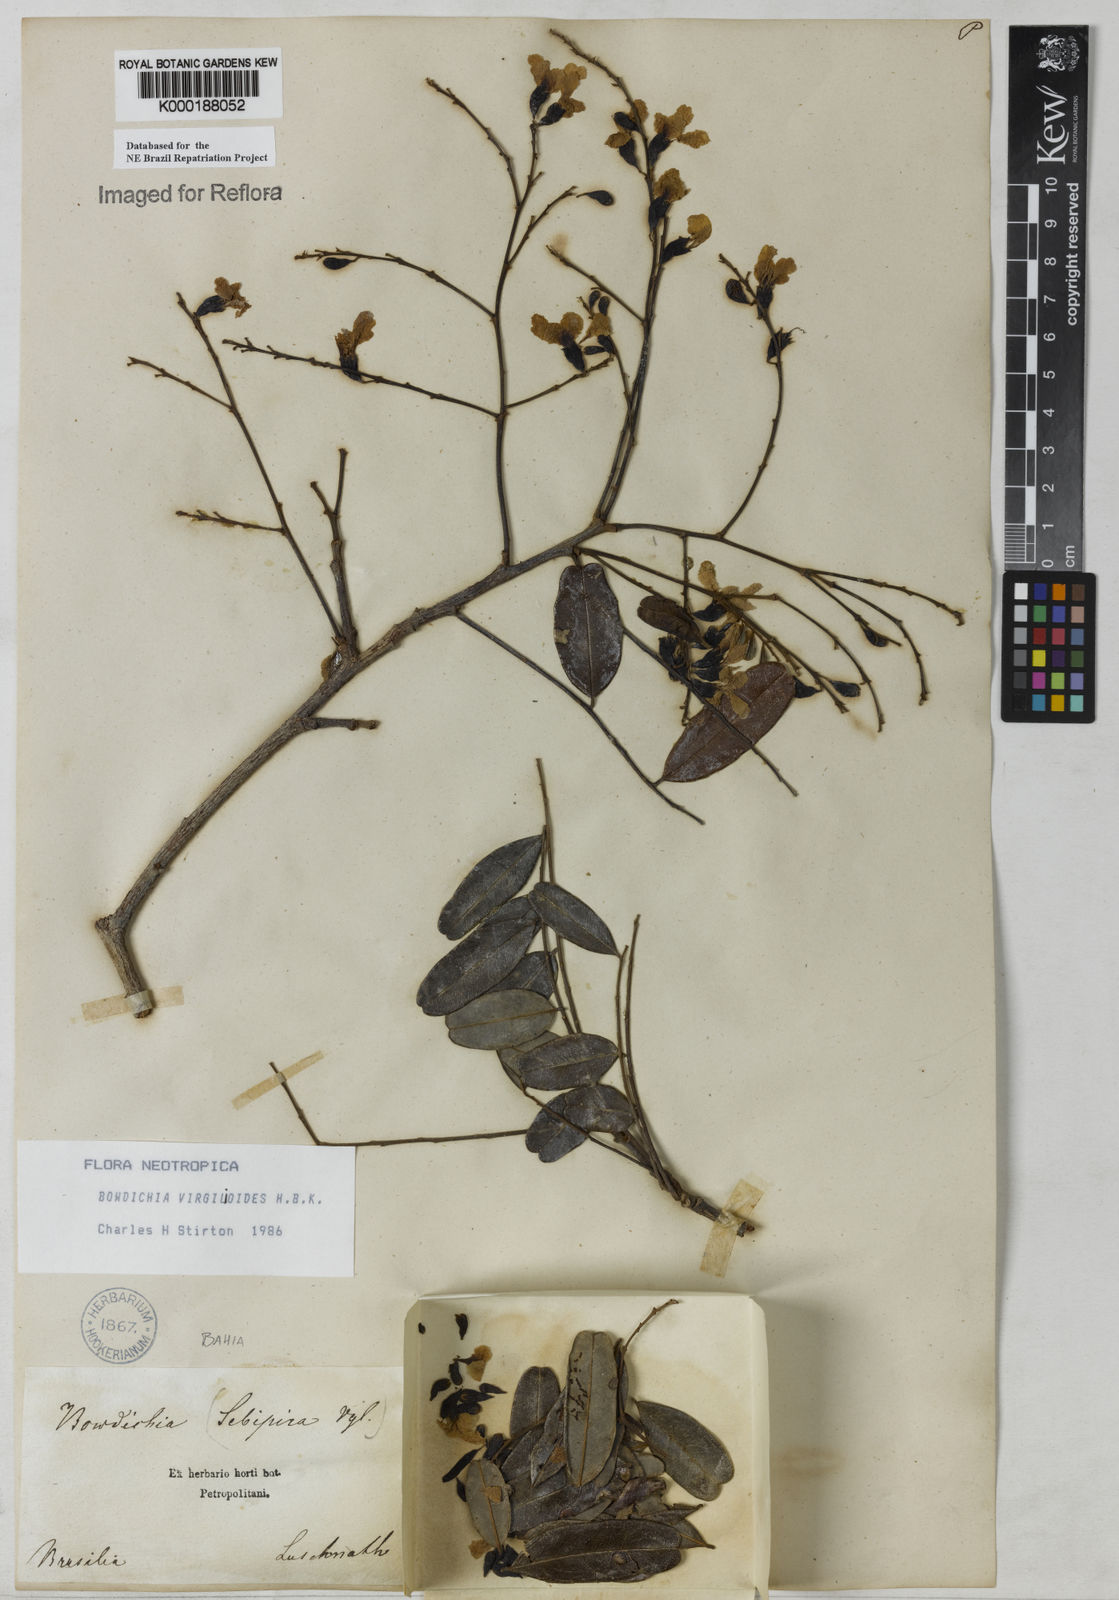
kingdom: Plantae
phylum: Tracheophyta
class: Magnoliopsida
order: Fabales
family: Fabaceae
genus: Bowdichia
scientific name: Bowdichia virgilioides
